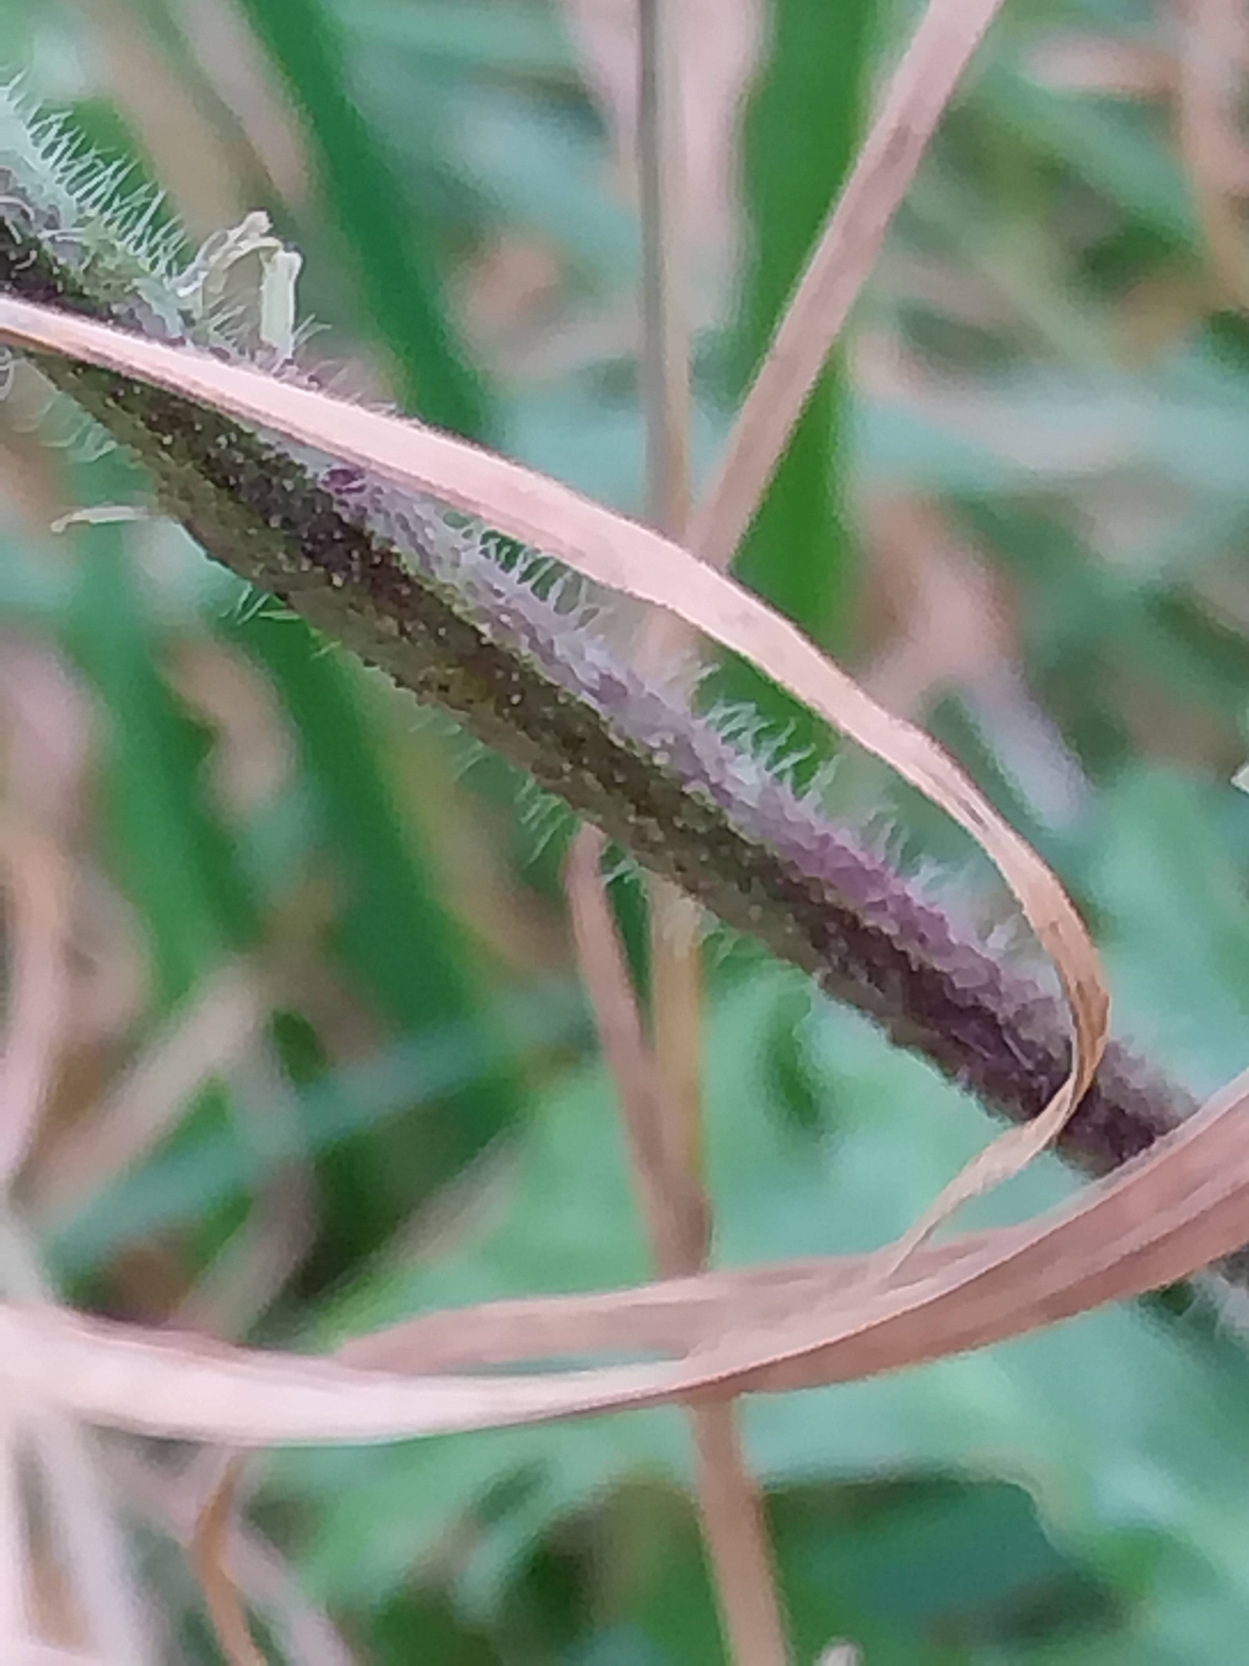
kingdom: Plantae
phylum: Tracheophyta
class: Magnoliopsida
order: Malvales
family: Malvaceae
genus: Malva
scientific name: Malva moschata
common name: Moskus-katost
